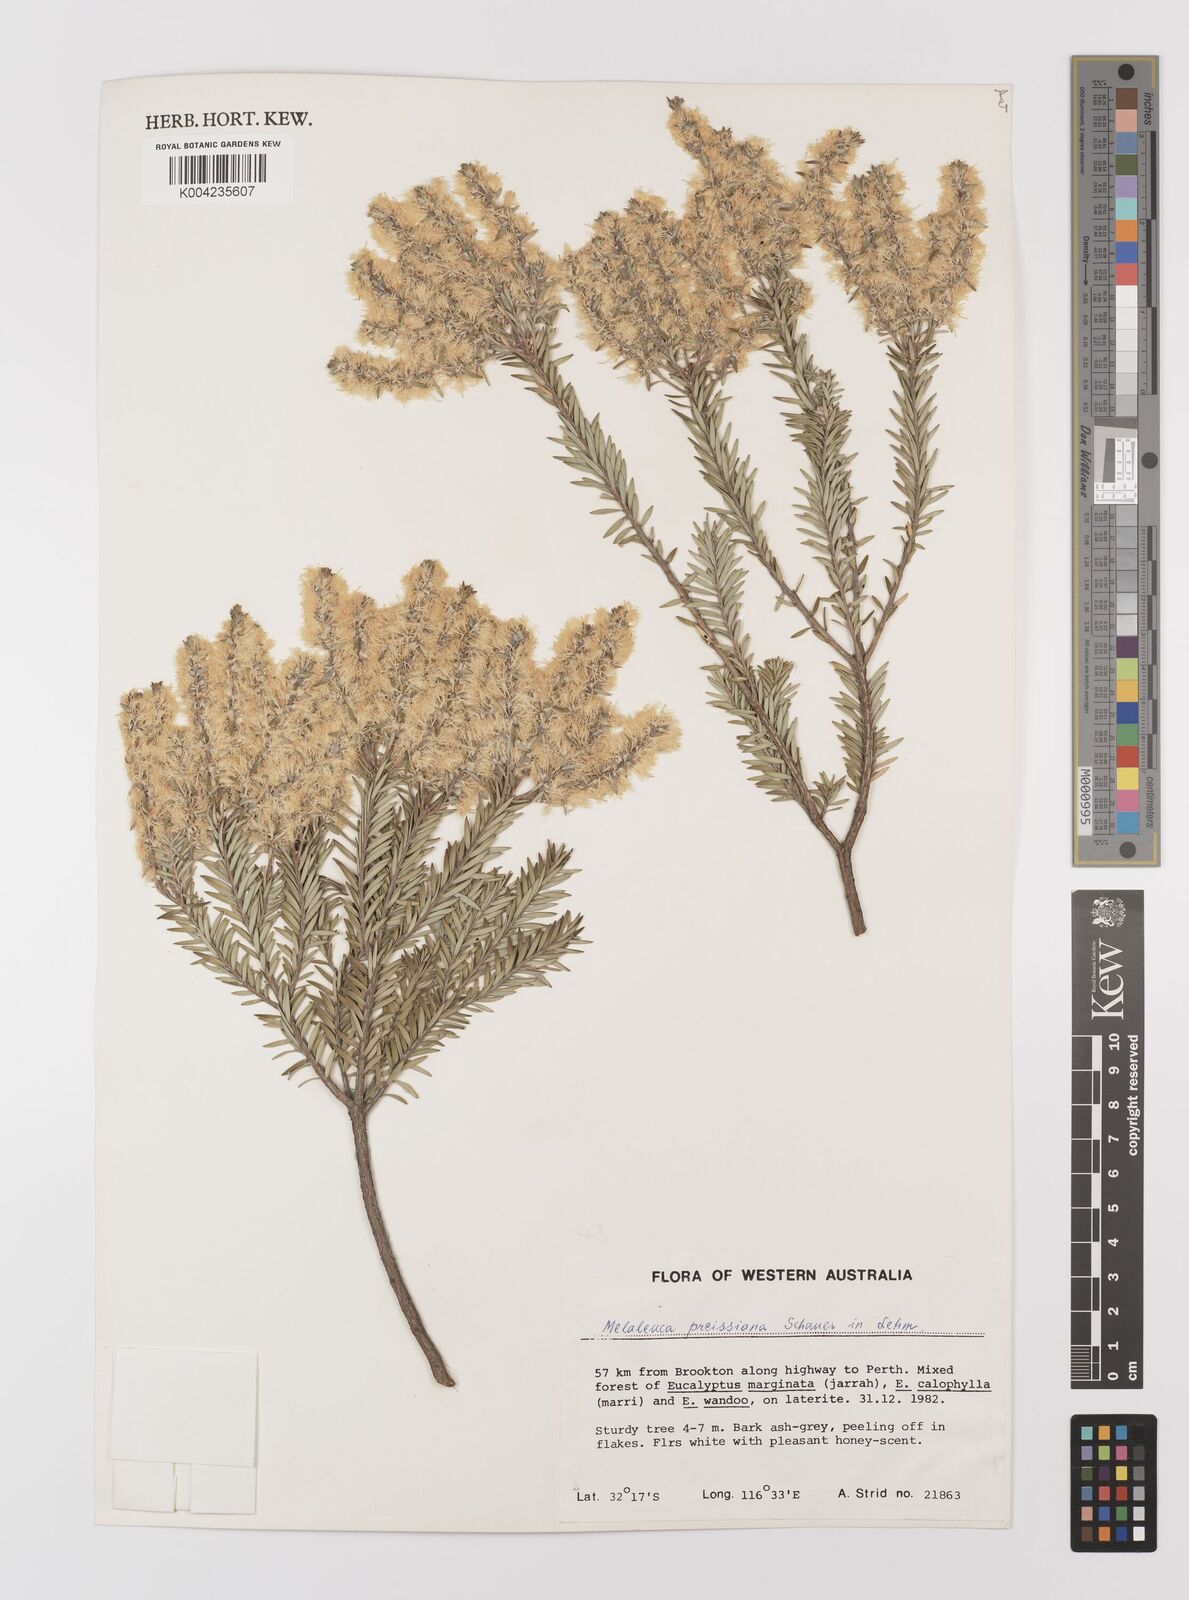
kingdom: Plantae
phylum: Tracheophyta
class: Magnoliopsida
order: Myrtales
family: Myrtaceae
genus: Melaleuca
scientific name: Melaleuca preissiana
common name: Preiss's paperbark
